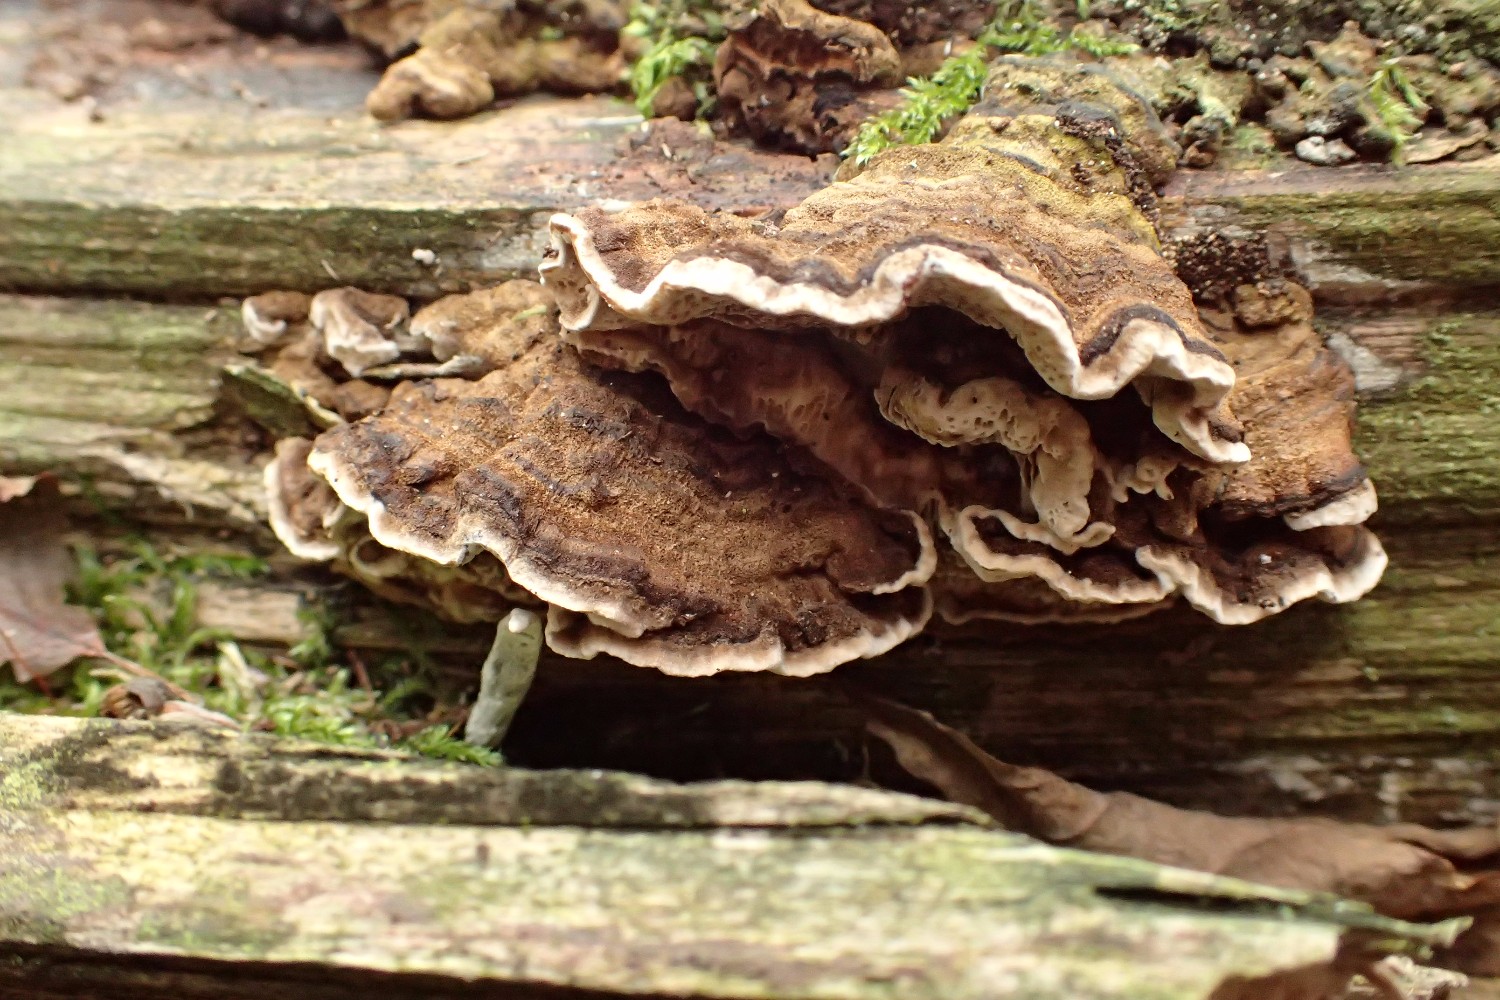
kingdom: Fungi
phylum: Basidiomycota
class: Agaricomycetes
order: Polyporales
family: Polyporaceae
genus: Podofomes
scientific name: Podofomes mollis
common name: blød begporesvamp
